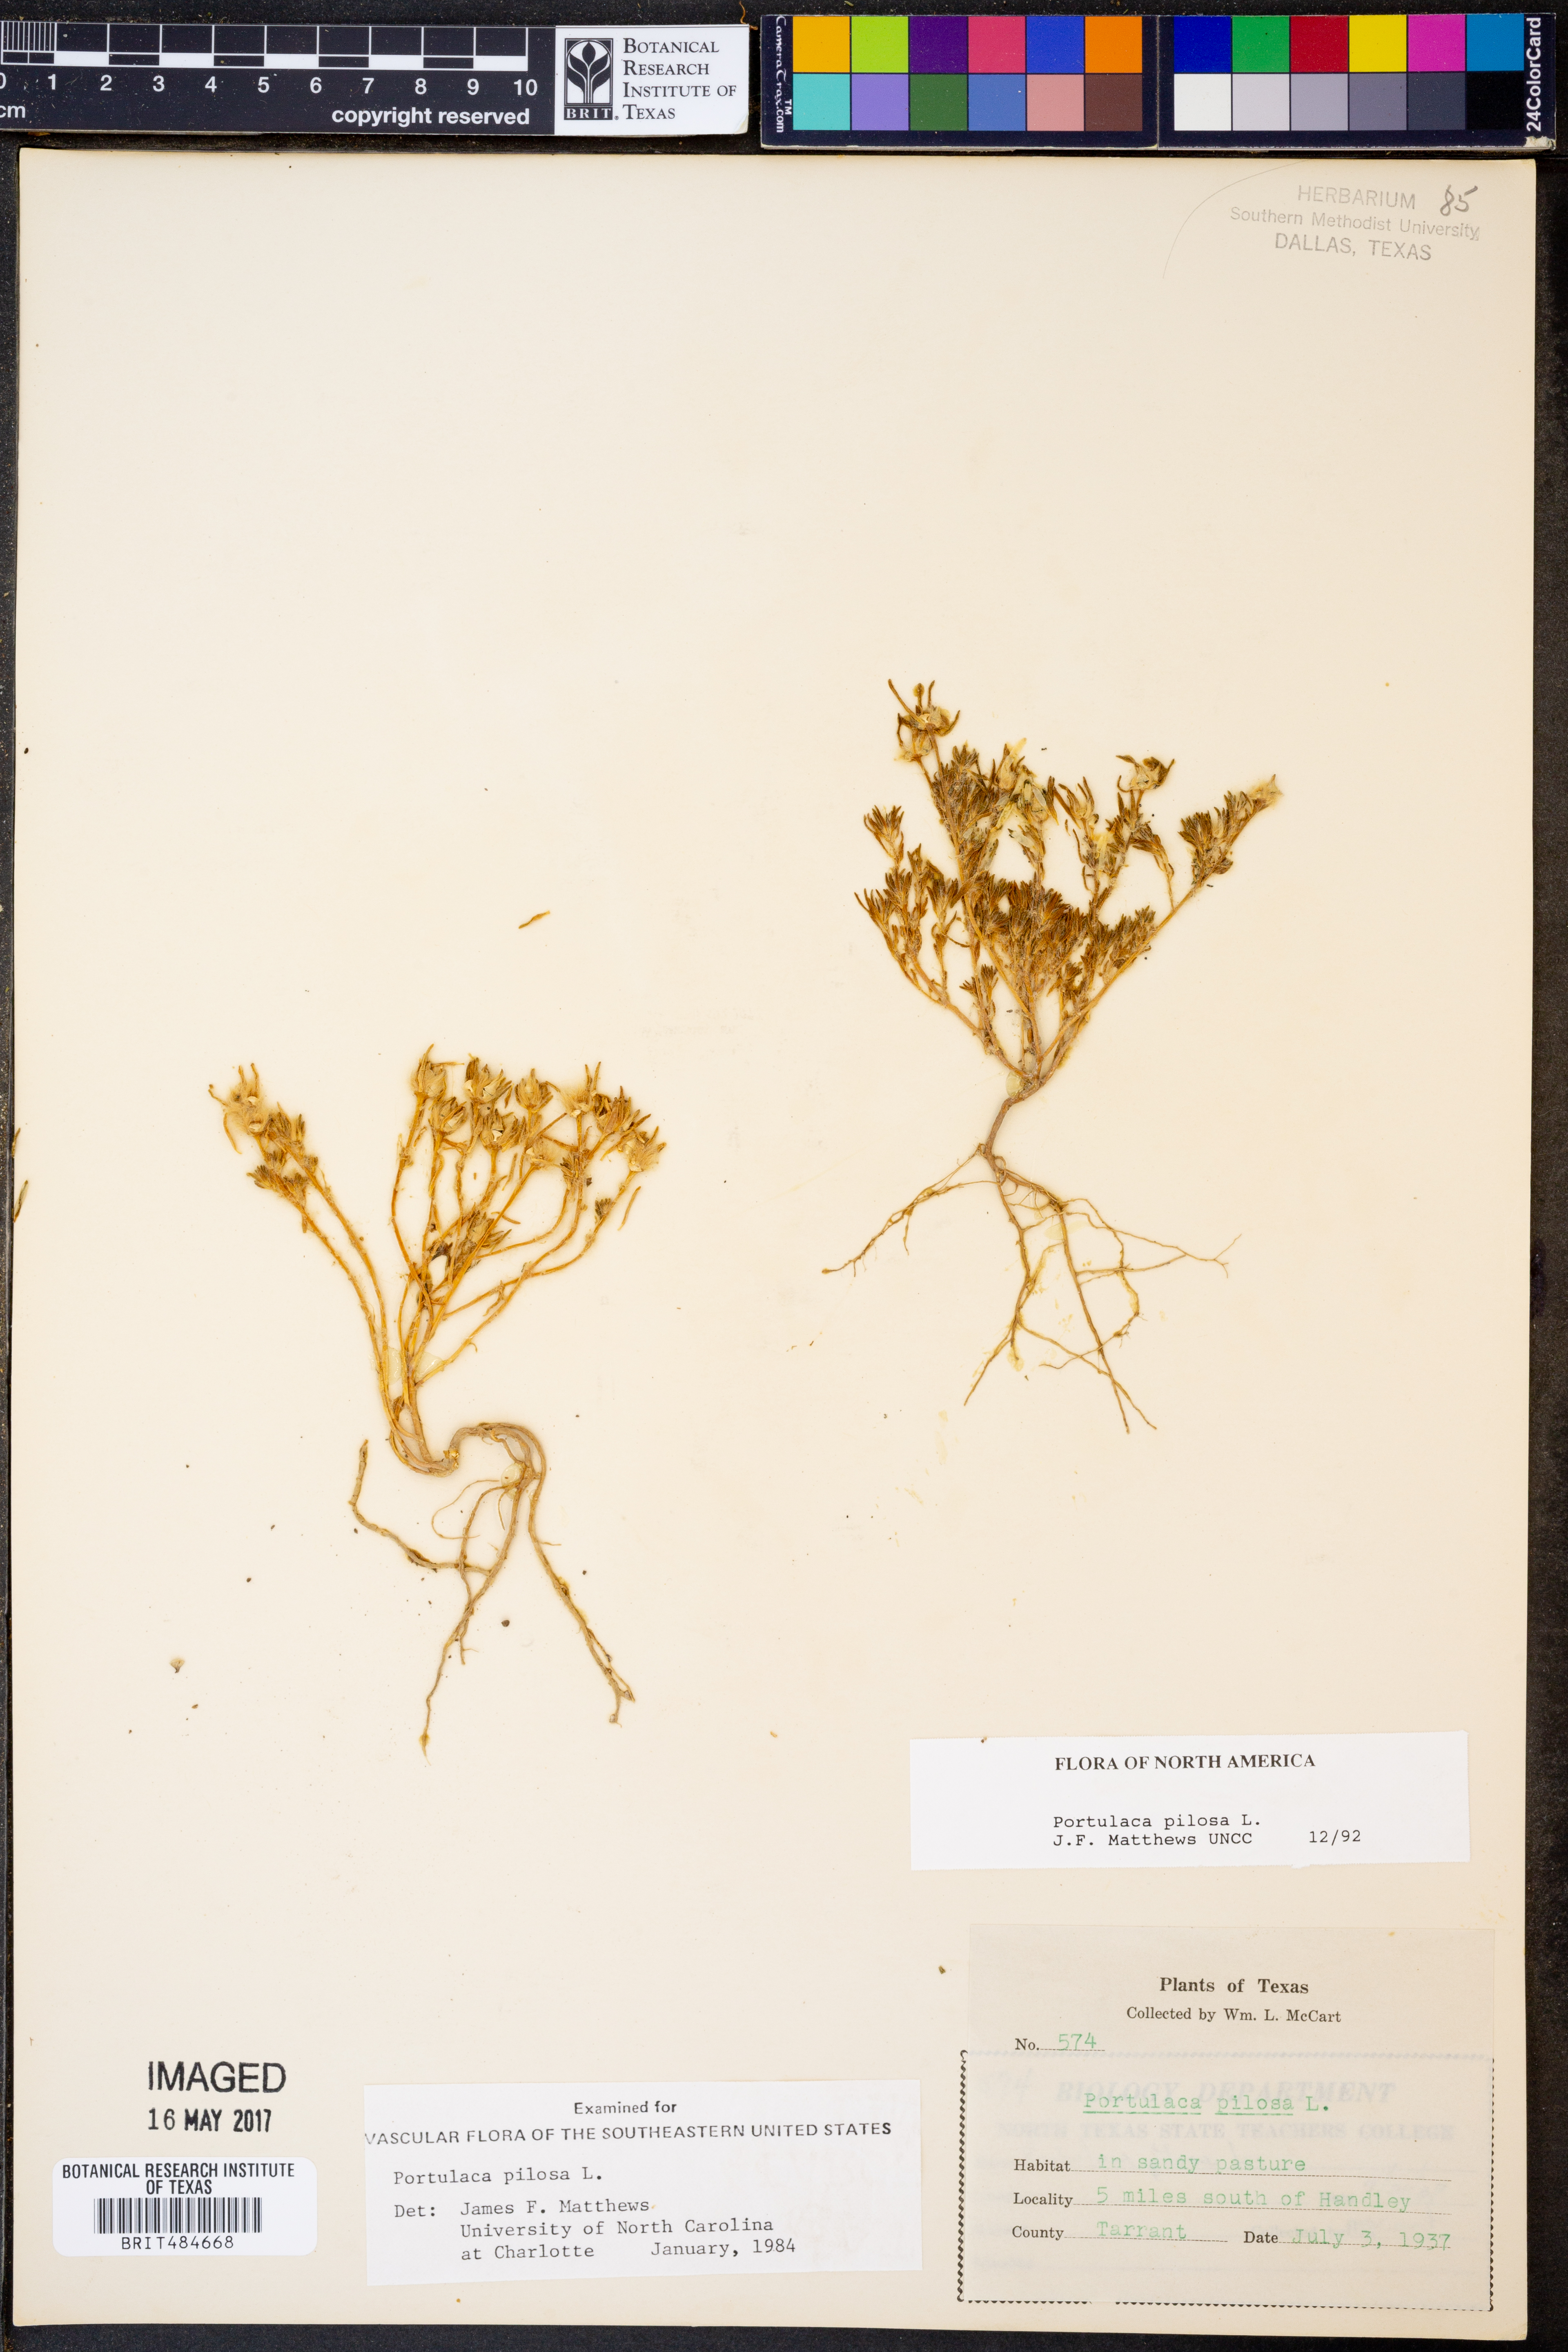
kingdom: Plantae
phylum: Tracheophyta
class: Magnoliopsida
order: Caryophyllales
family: Portulacaceae
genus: Portulaca
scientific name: Portulaca pilosa
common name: Kiss me quick
